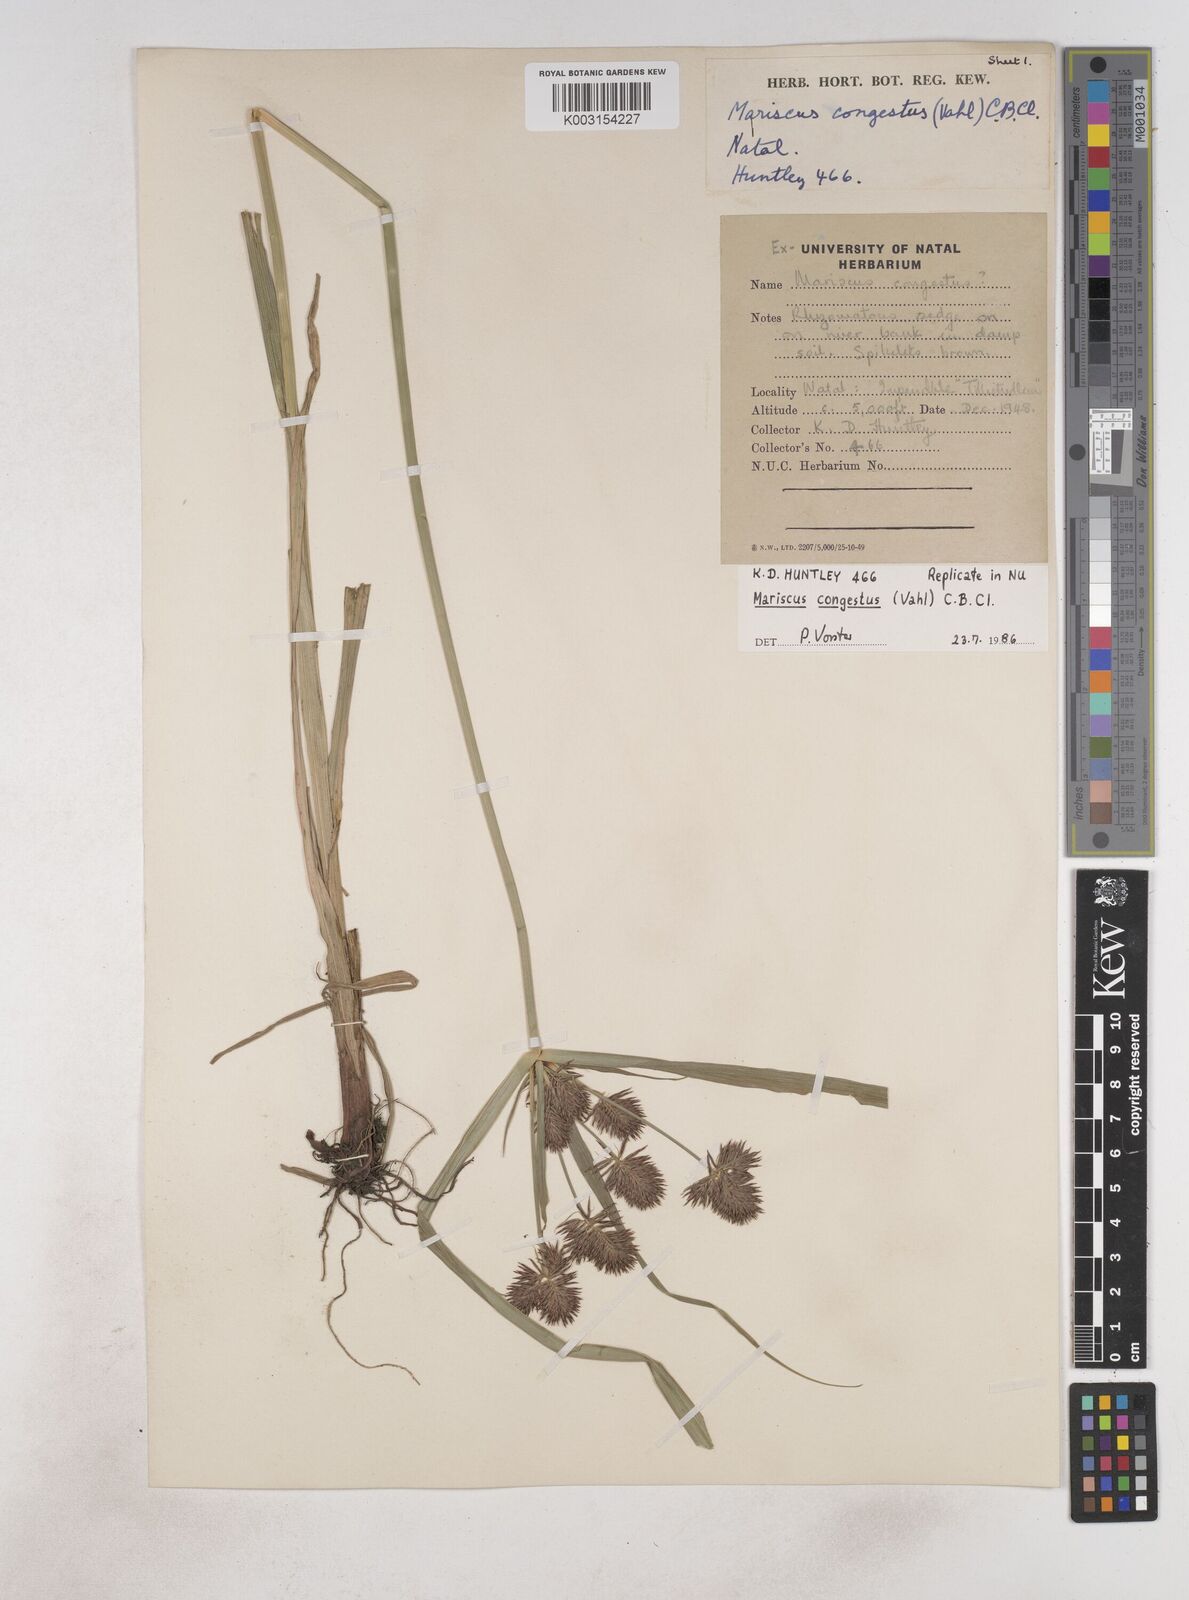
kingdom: Plantae
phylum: Tracheophyta
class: Liliopsida
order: Poales
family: Cyperaceae
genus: Cyperus
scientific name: Cyperus congestus
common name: Dense flat sedge
